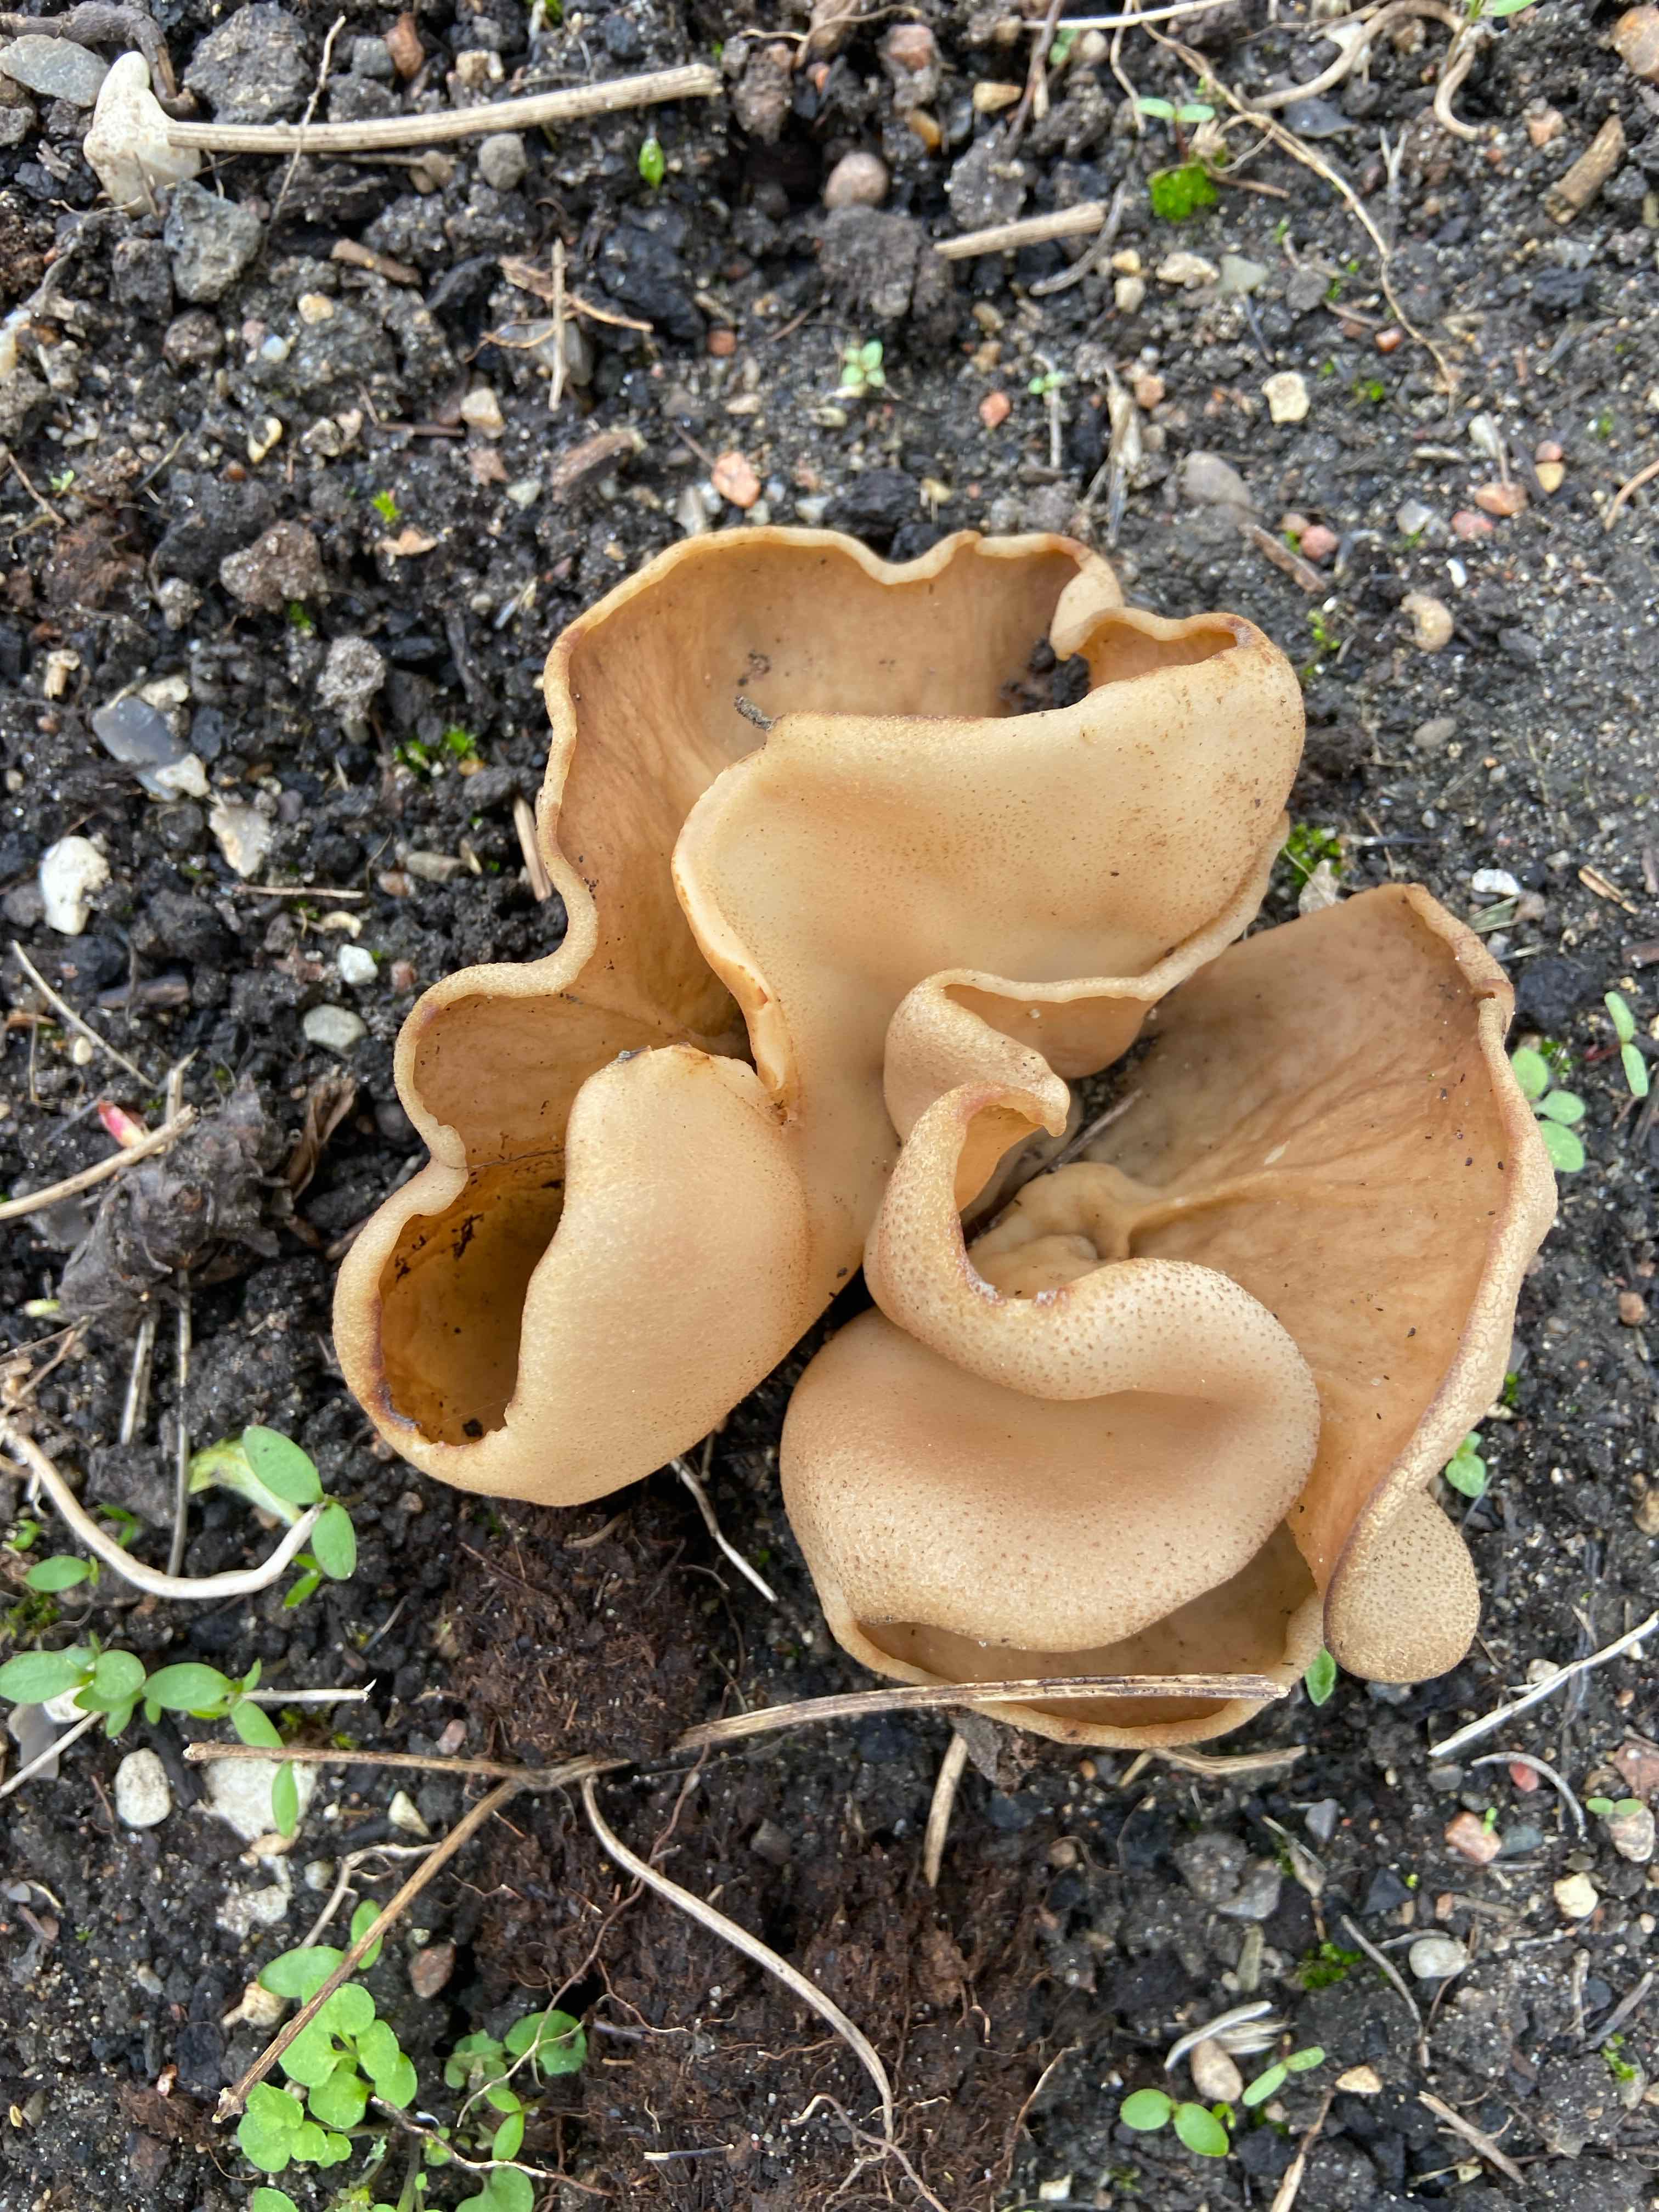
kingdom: Fungi
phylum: Ascomycota
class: Pezizomycetes
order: Pezizales
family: Morchellaceae
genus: Disciotis
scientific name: Disciotis venosa
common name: klor-bægermorkel
